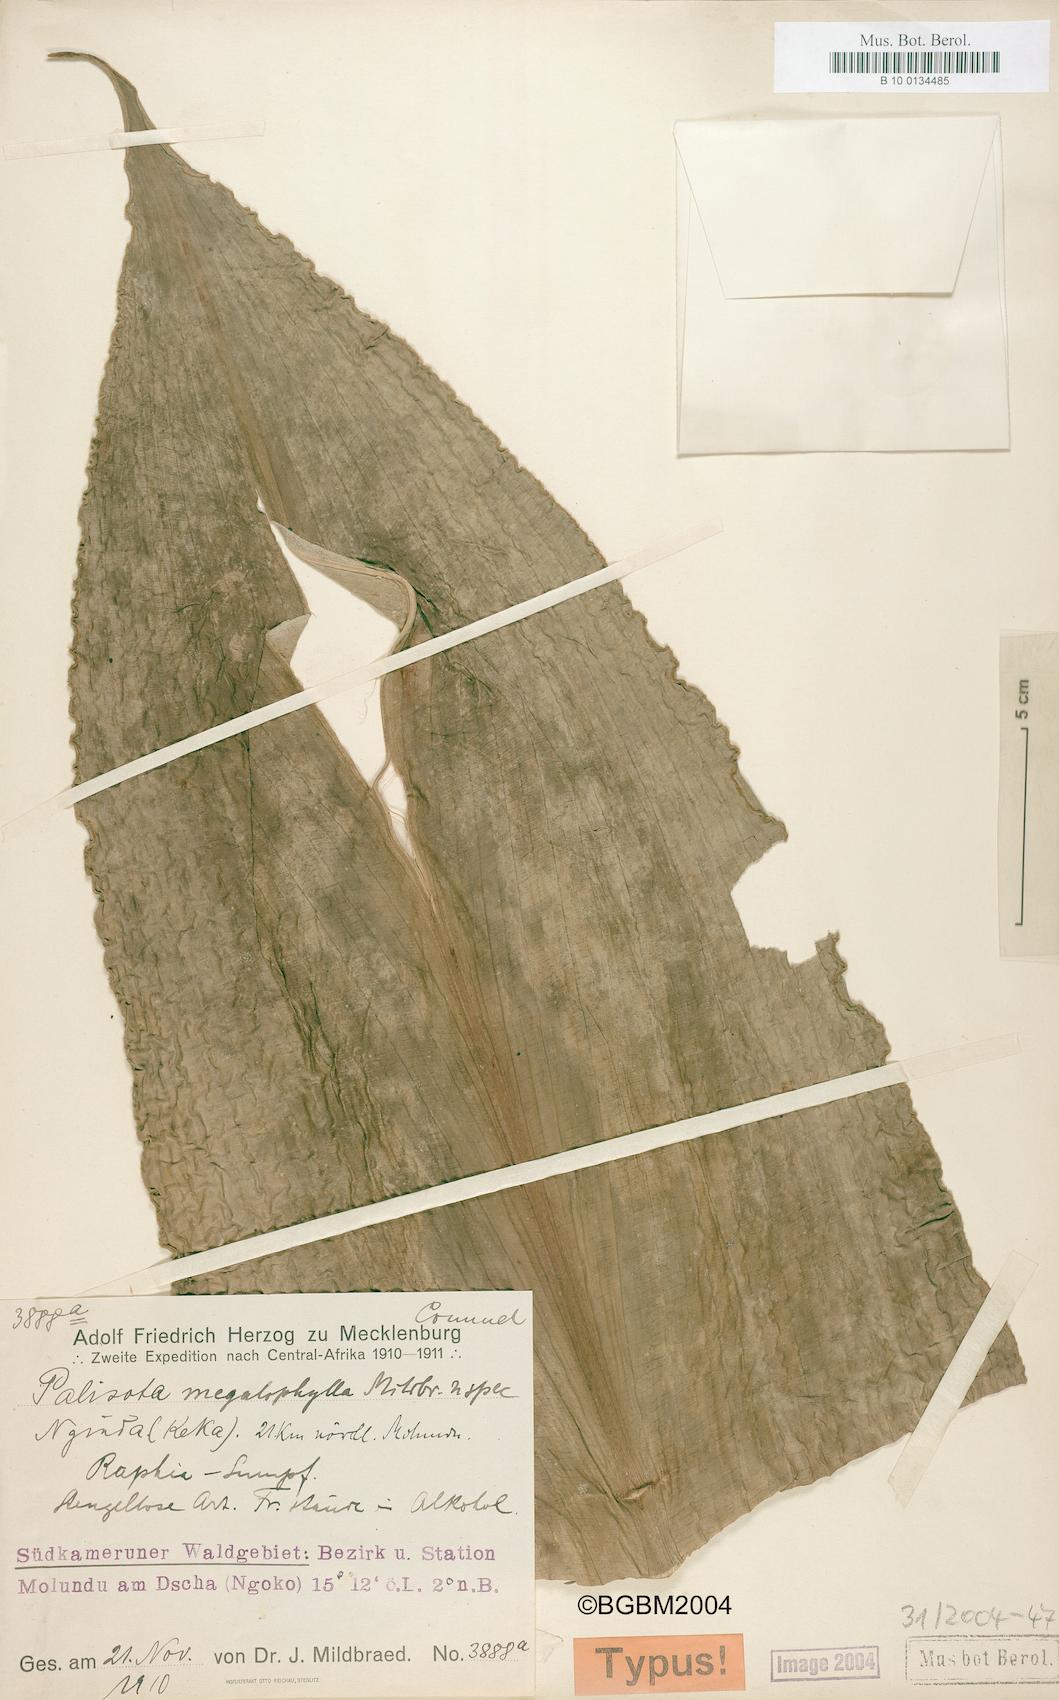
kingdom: Plantae
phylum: Tracheophyta
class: Liliopsida
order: Commelinales
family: Commelinaceae
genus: Palisota
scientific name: Palisota mannii
